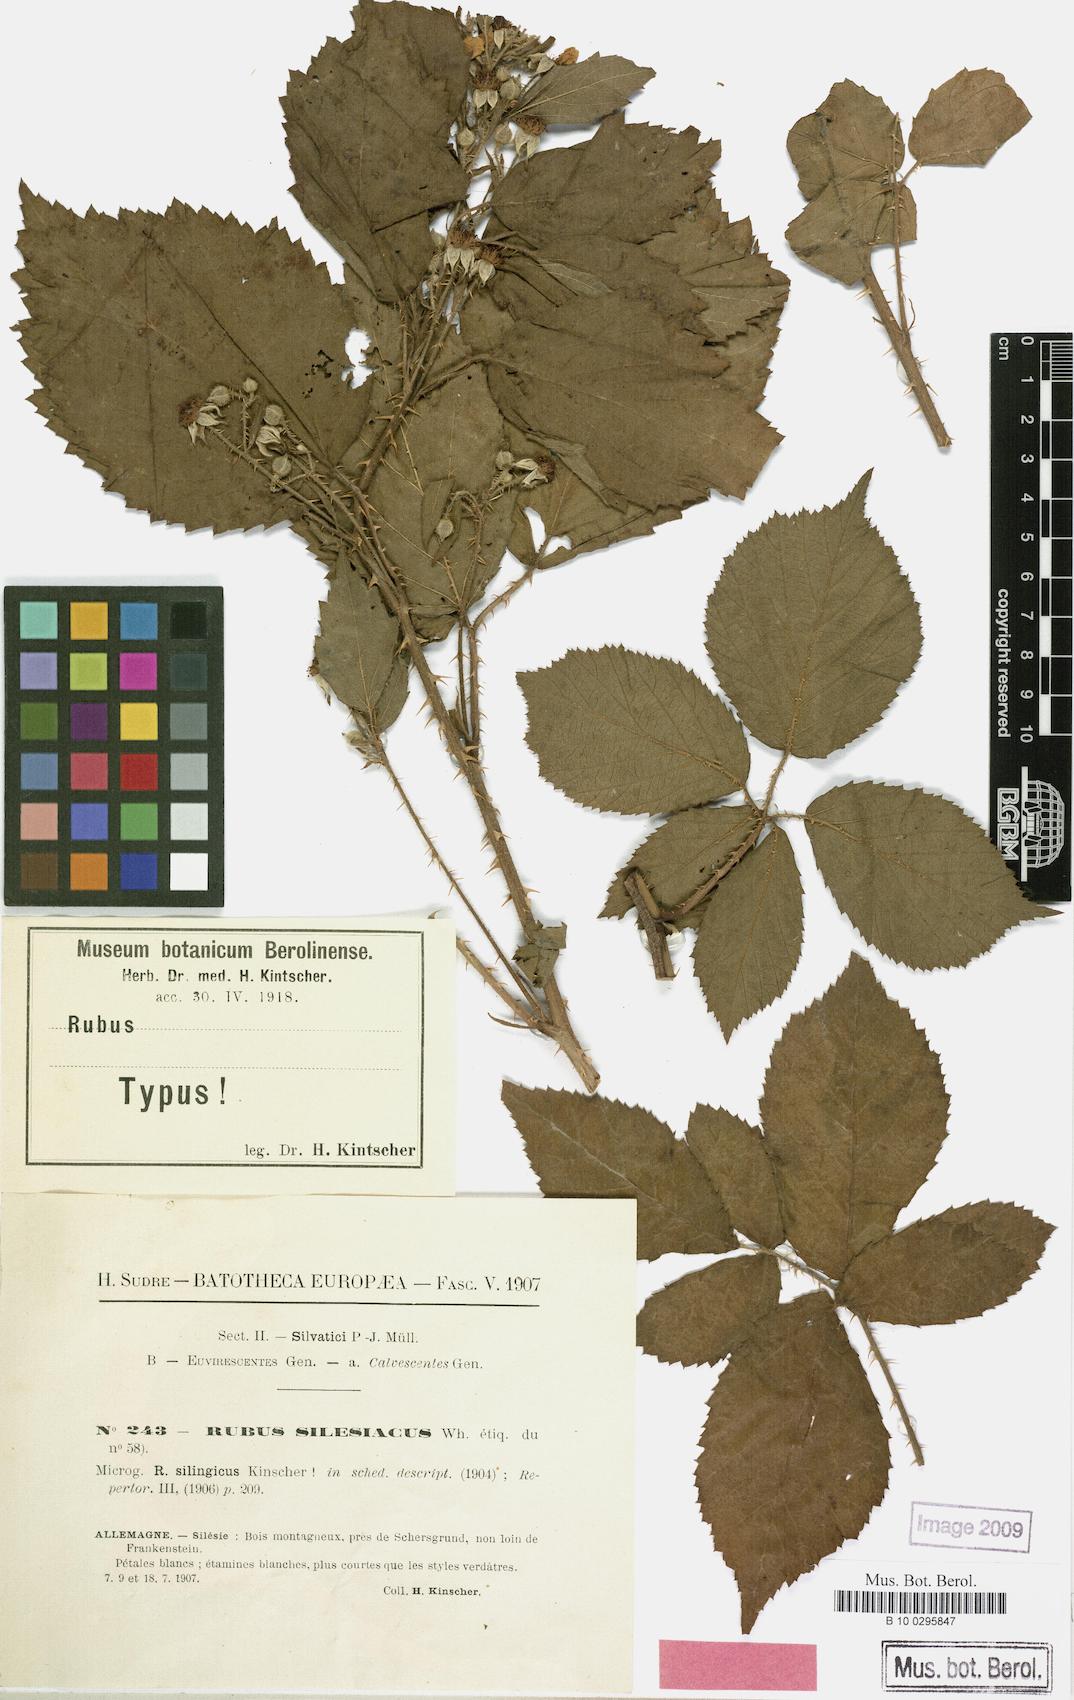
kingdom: Plantae
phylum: Tracheophyta
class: Magnoliopsida
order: Rosales
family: Rosaceae
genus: Rubus
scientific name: Rubus chlorothyrsos
